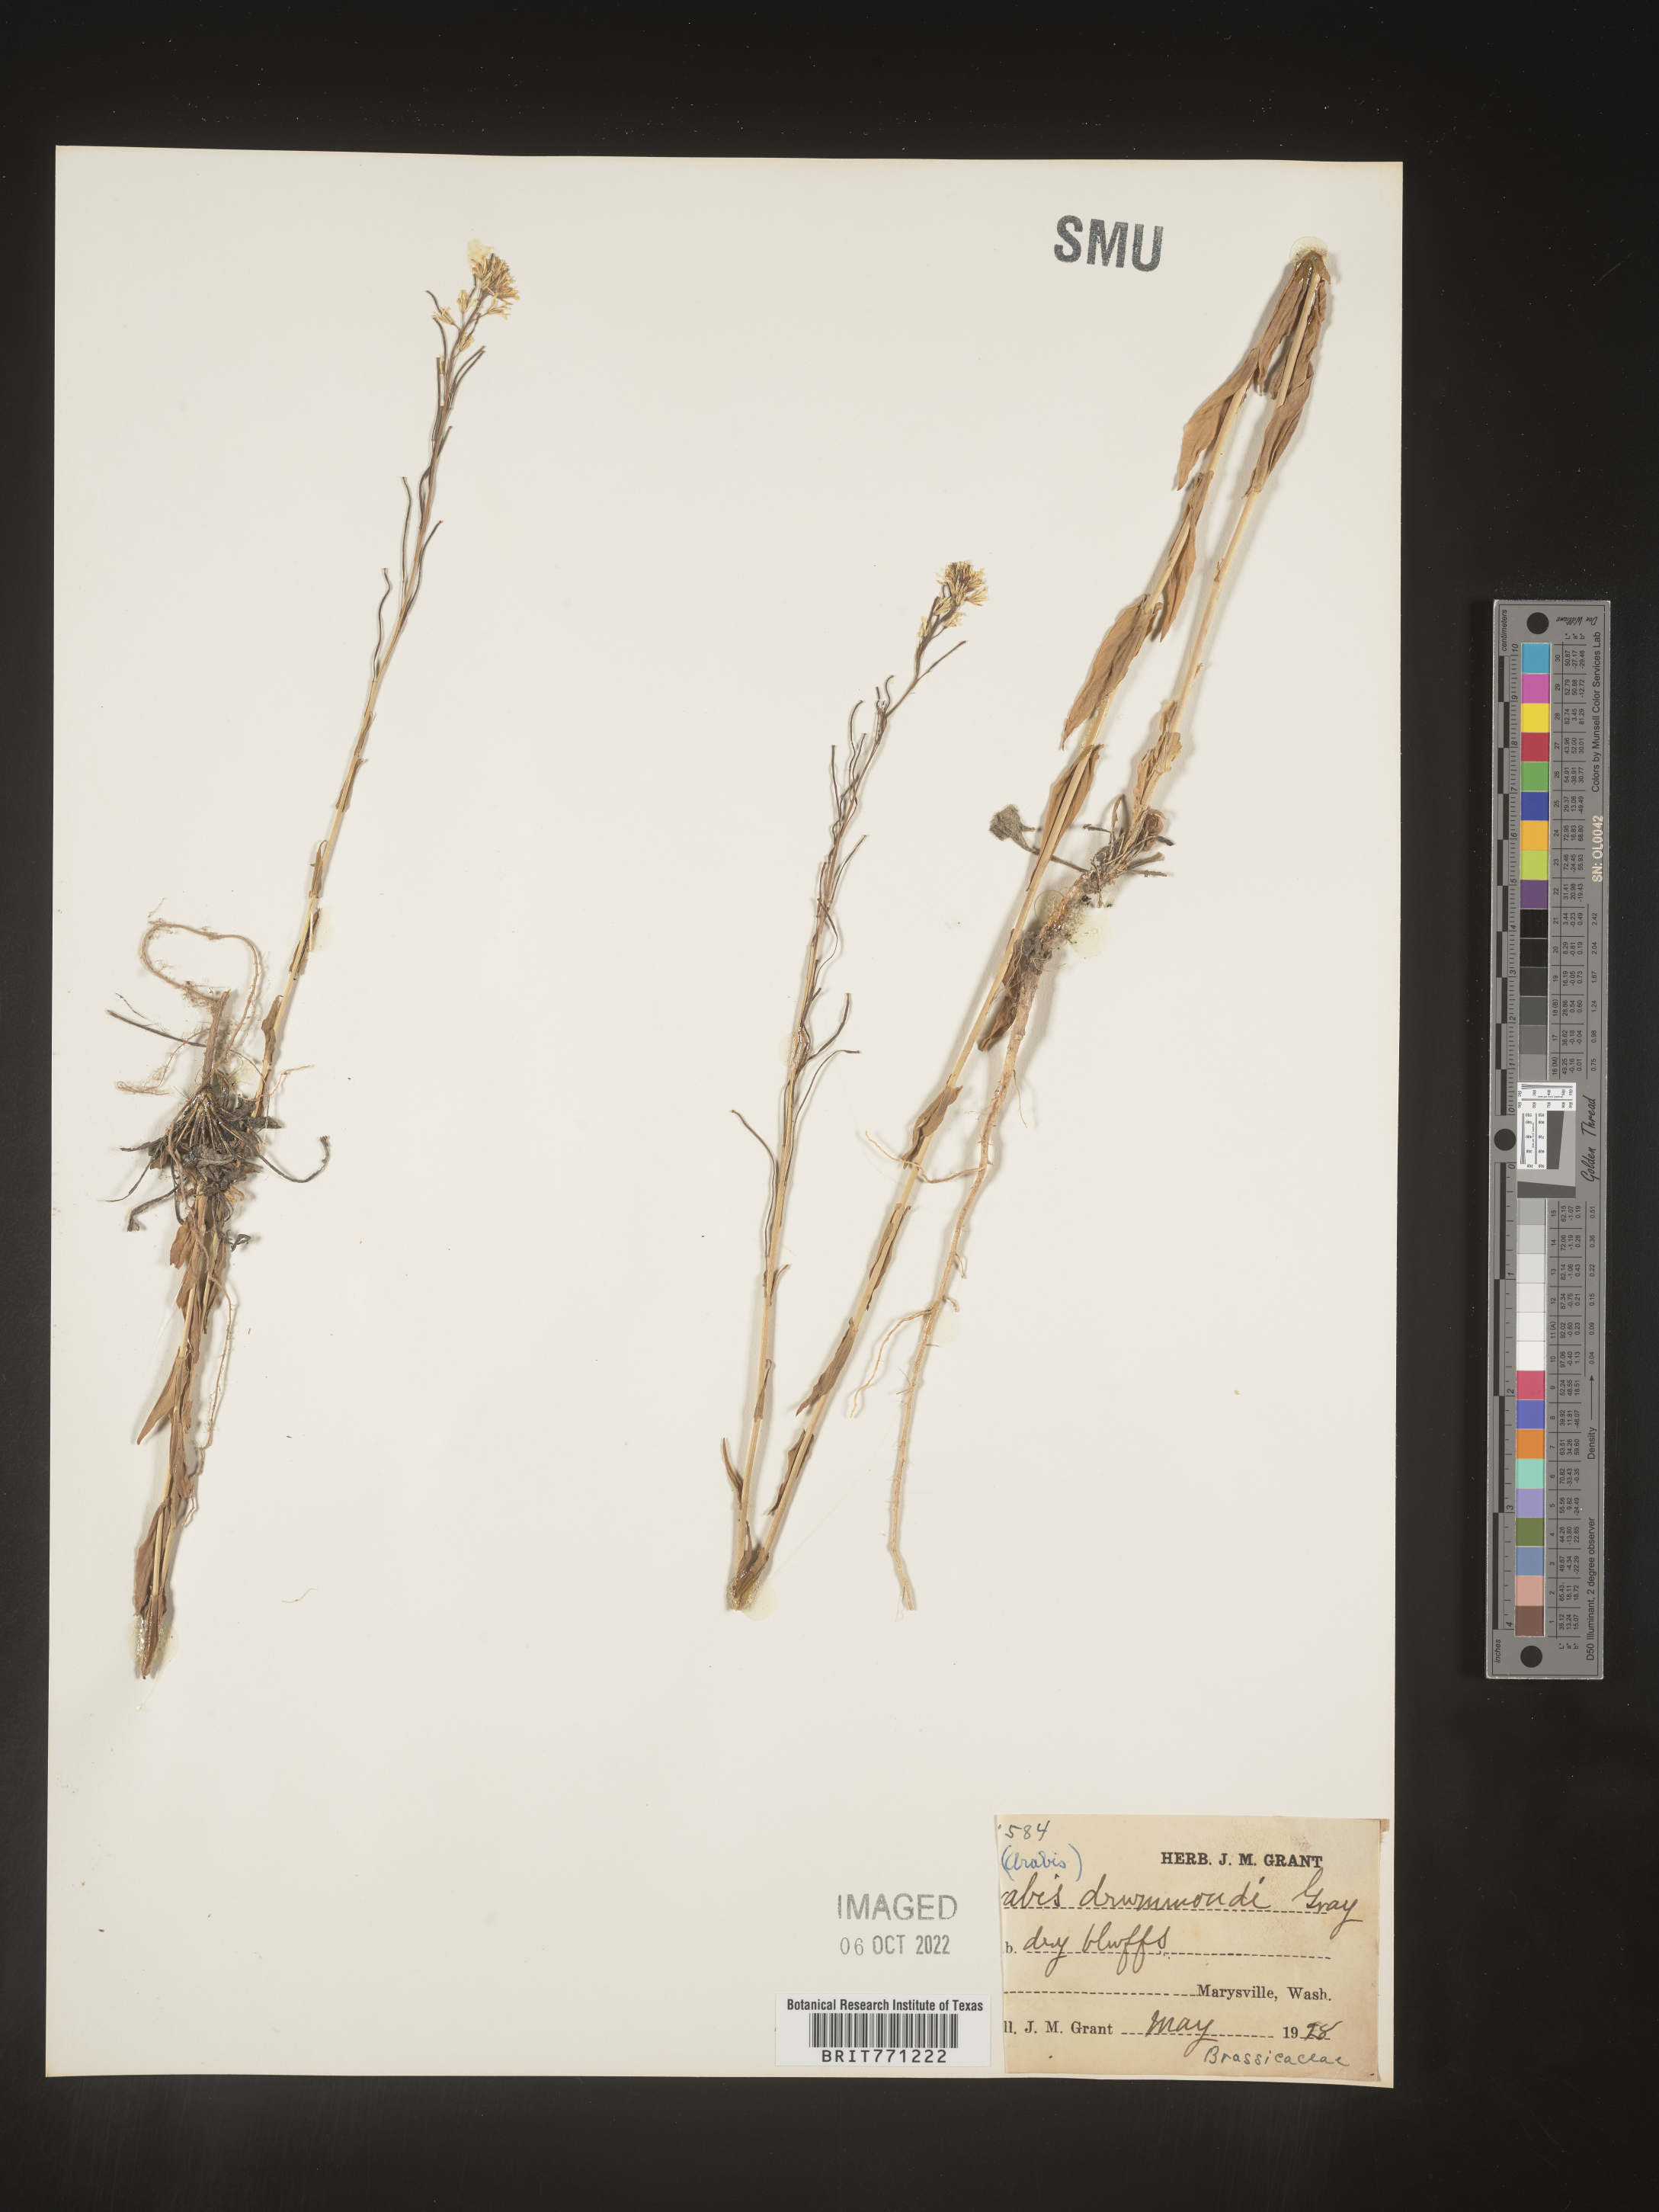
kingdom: Plantae
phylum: Tracheophyta
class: Magnoliopsida
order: Brassicales
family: Brassicaceae
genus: Boechera
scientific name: Boechera stricta
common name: Canadian rockcress
